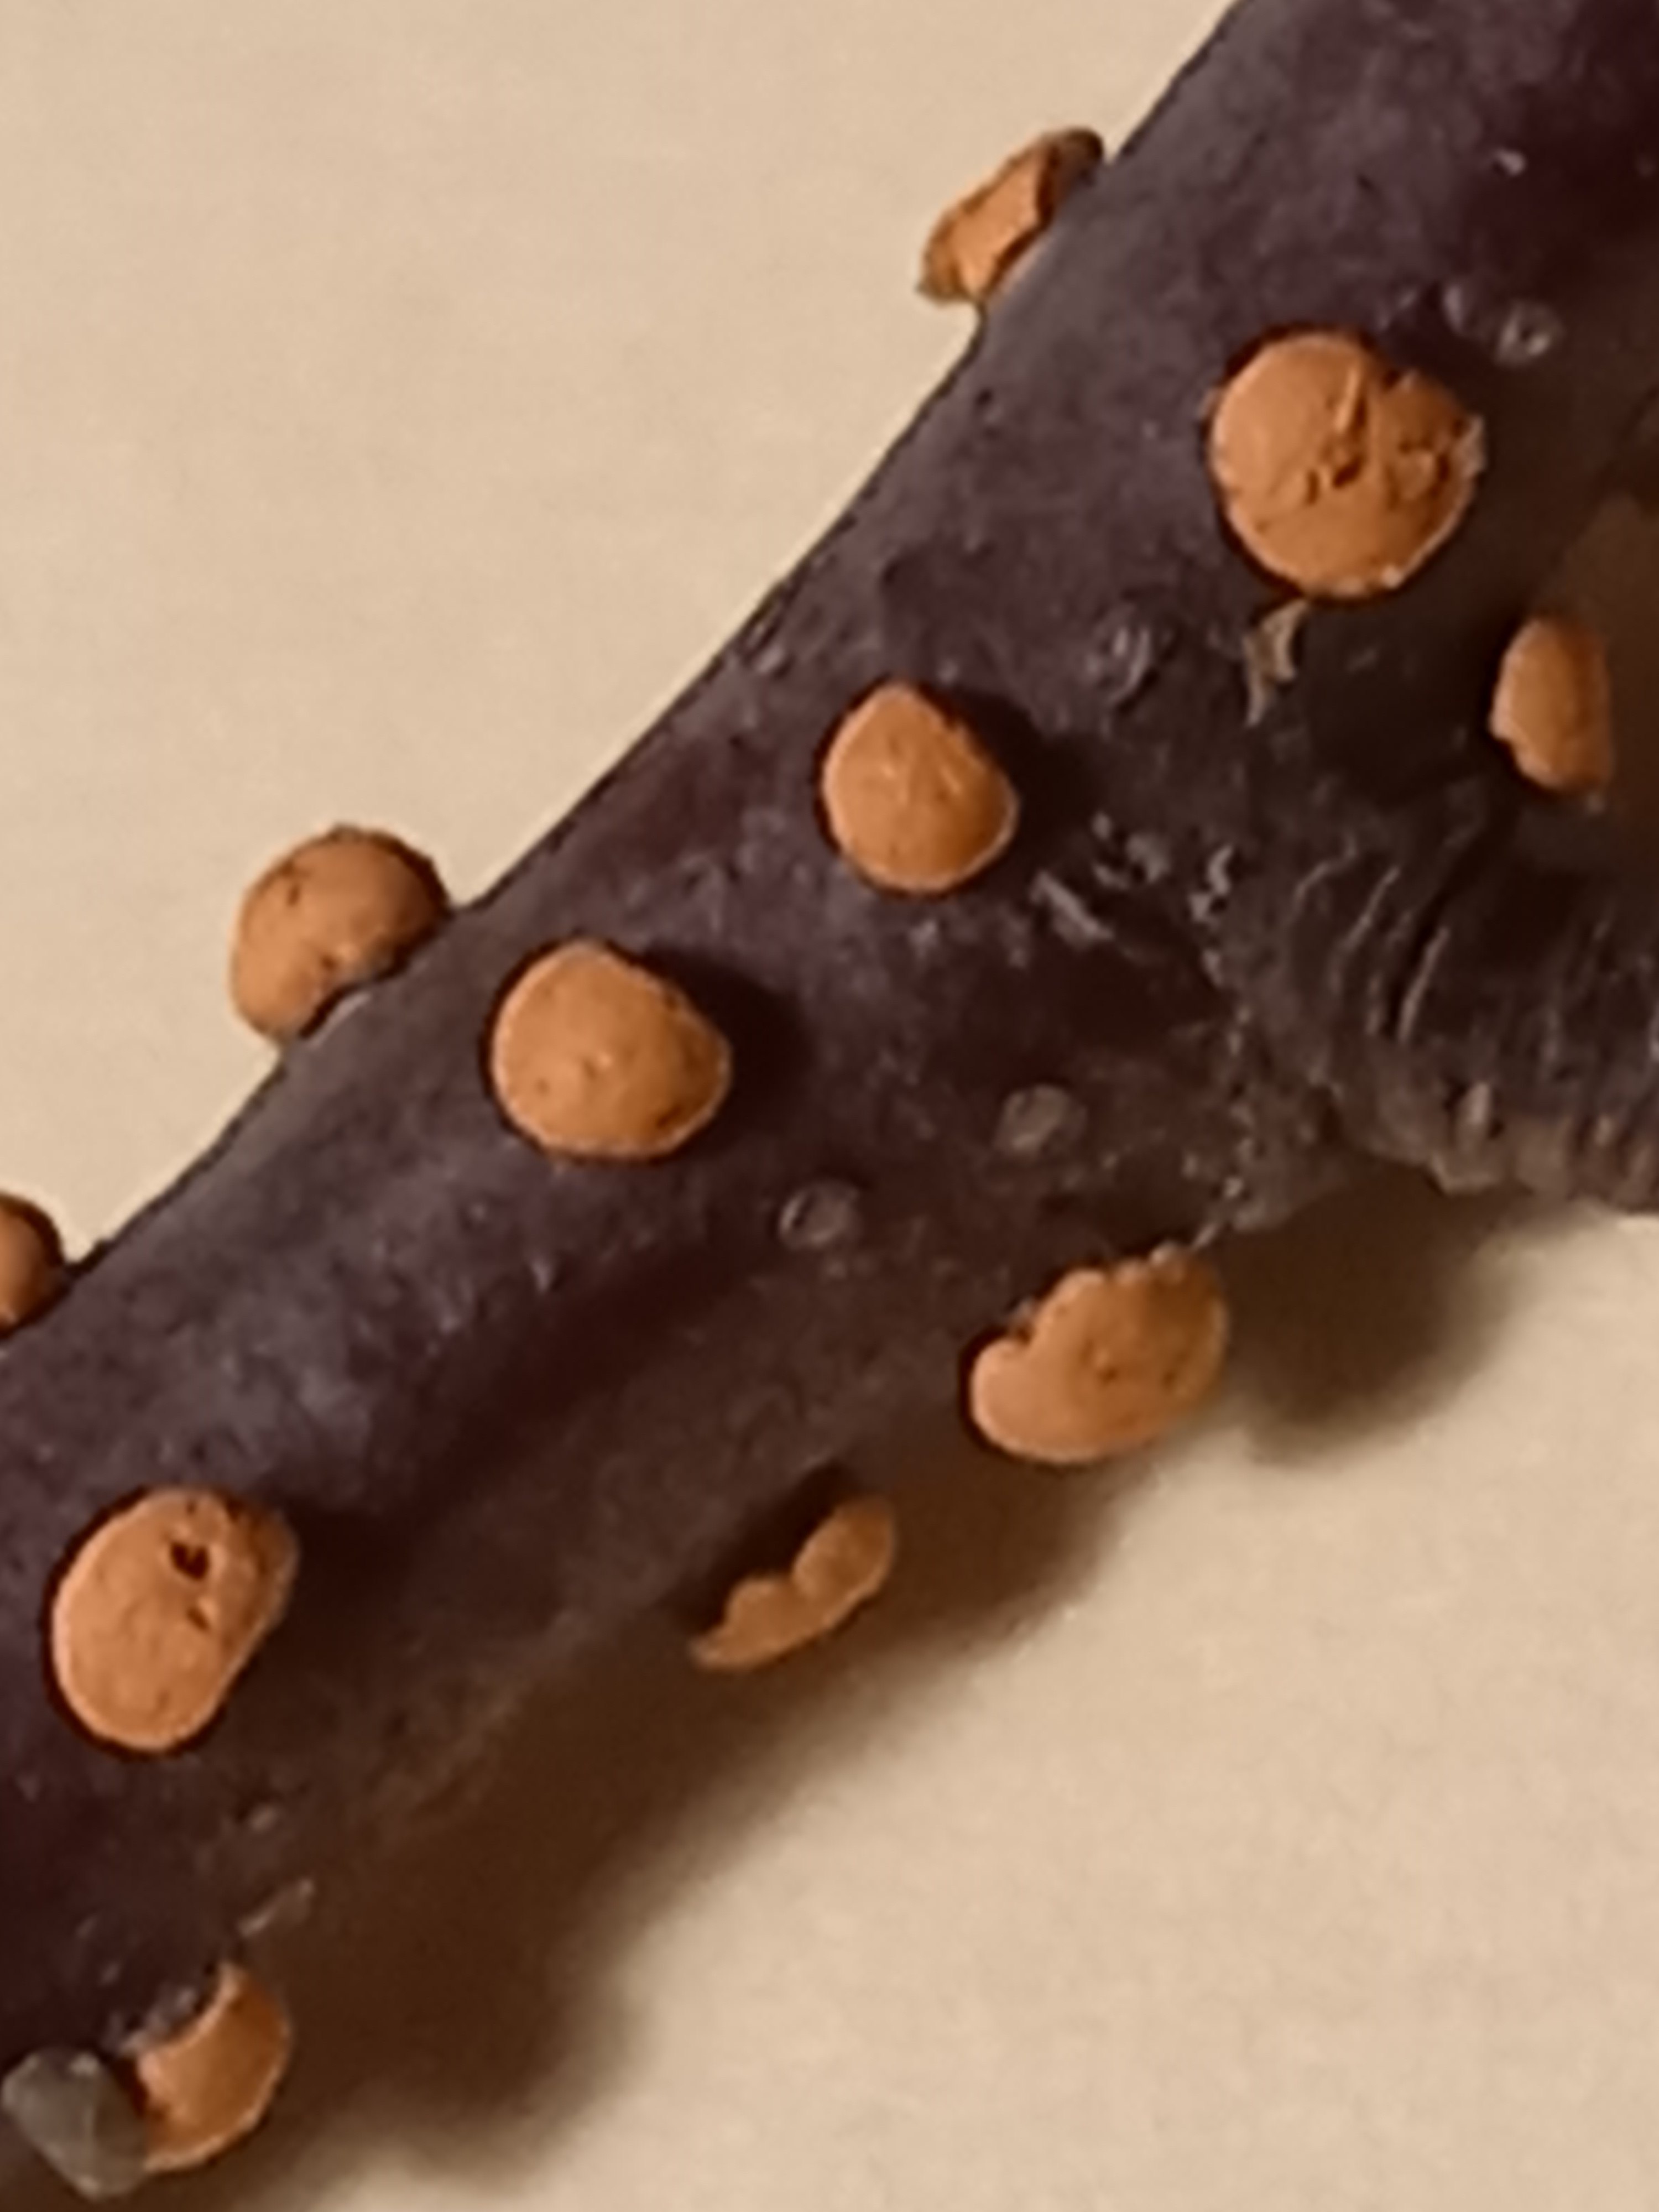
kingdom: Fungi
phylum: Ascomycota
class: Sordariomycetes
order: Hypocreales
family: Nectriaceae
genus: Nectria
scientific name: Nectria cinnabarina
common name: almindelig cinnobersvamp
